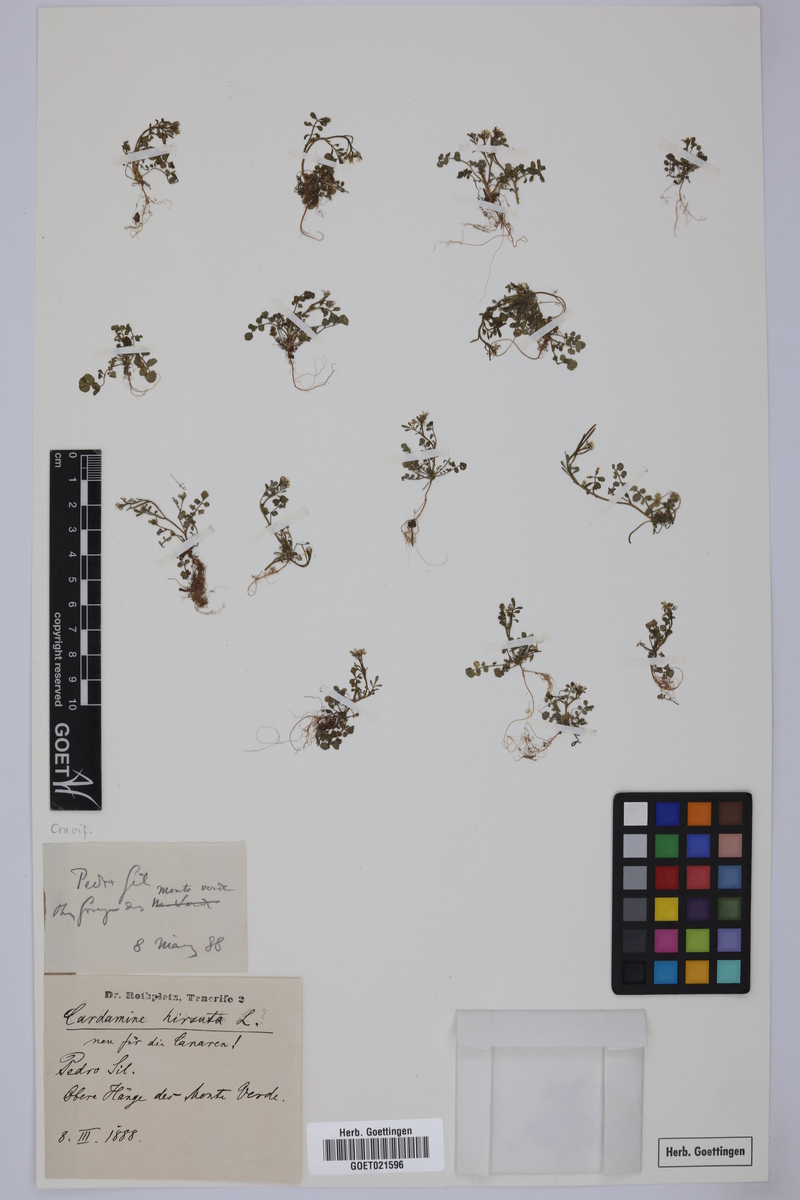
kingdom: Plantae
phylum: Tracheophyta
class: Magnoliopsida
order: Brassicales
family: Brassicaceae
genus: Cardamine
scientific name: Cardamine hirsuta
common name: Hairy bittercress
